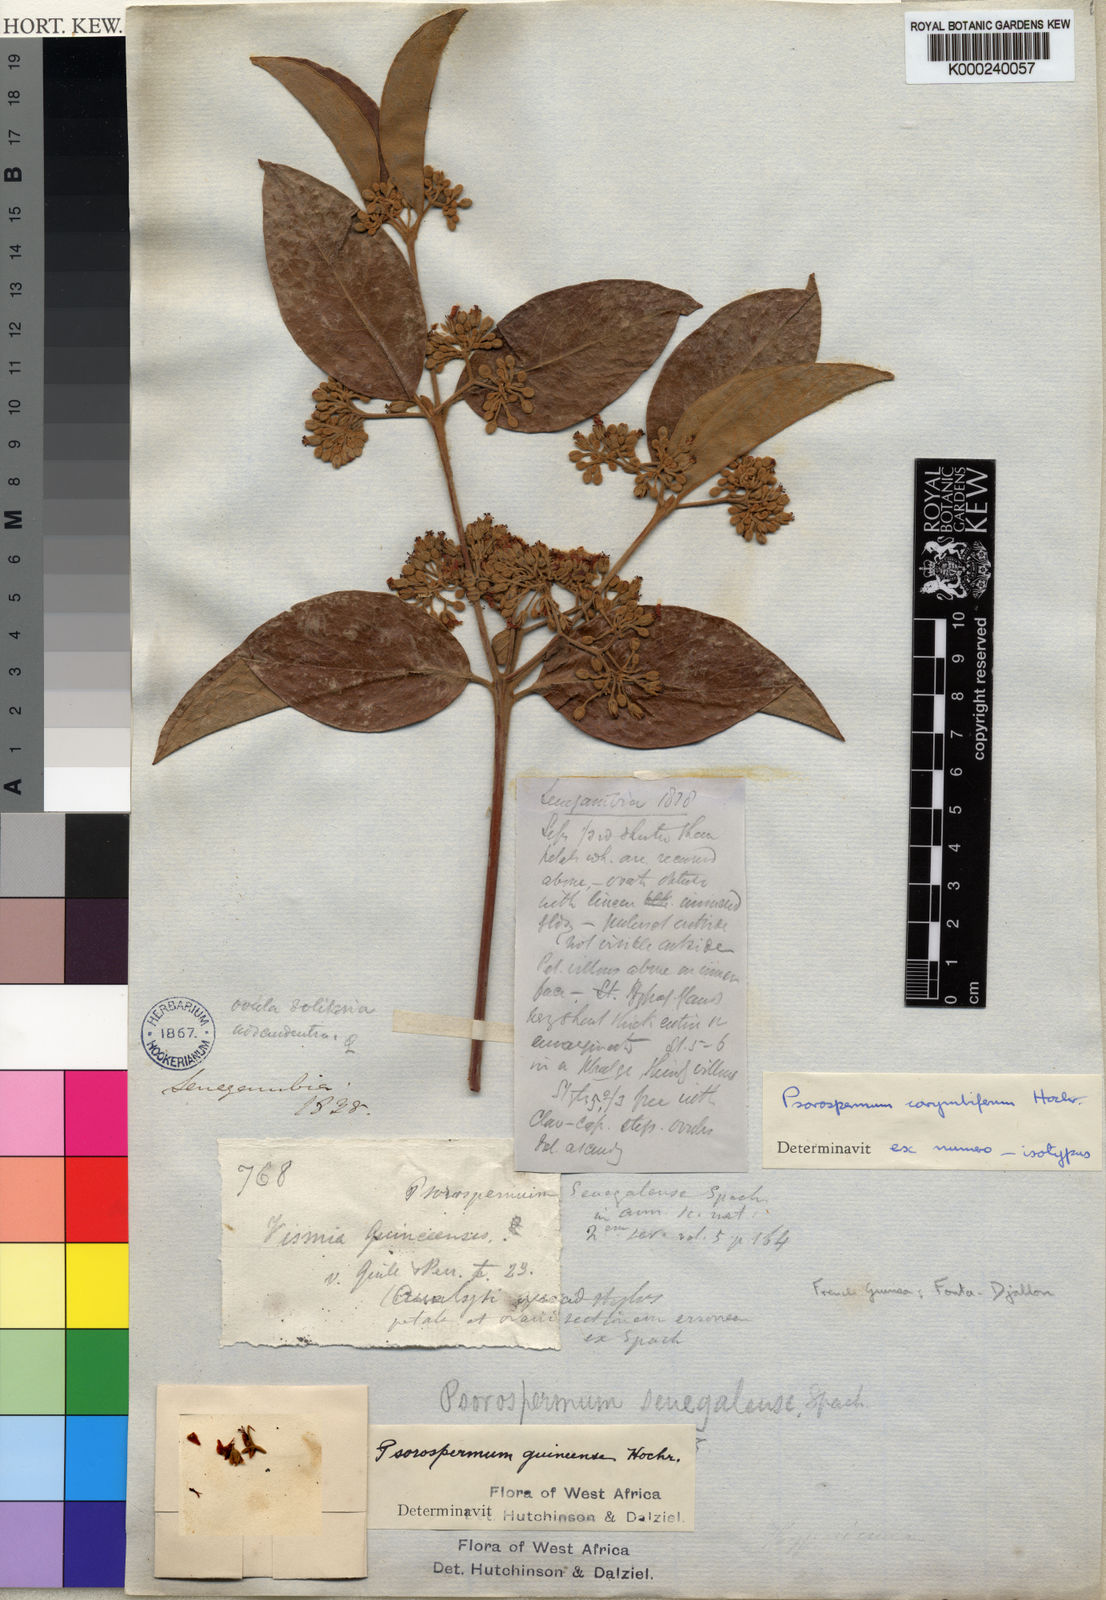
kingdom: Plantae
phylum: Tracheophyta
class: Magnoliopsida
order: Malpighiales
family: Hypericaceae
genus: Psorospermum
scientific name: Psorospermum corymbiferum
